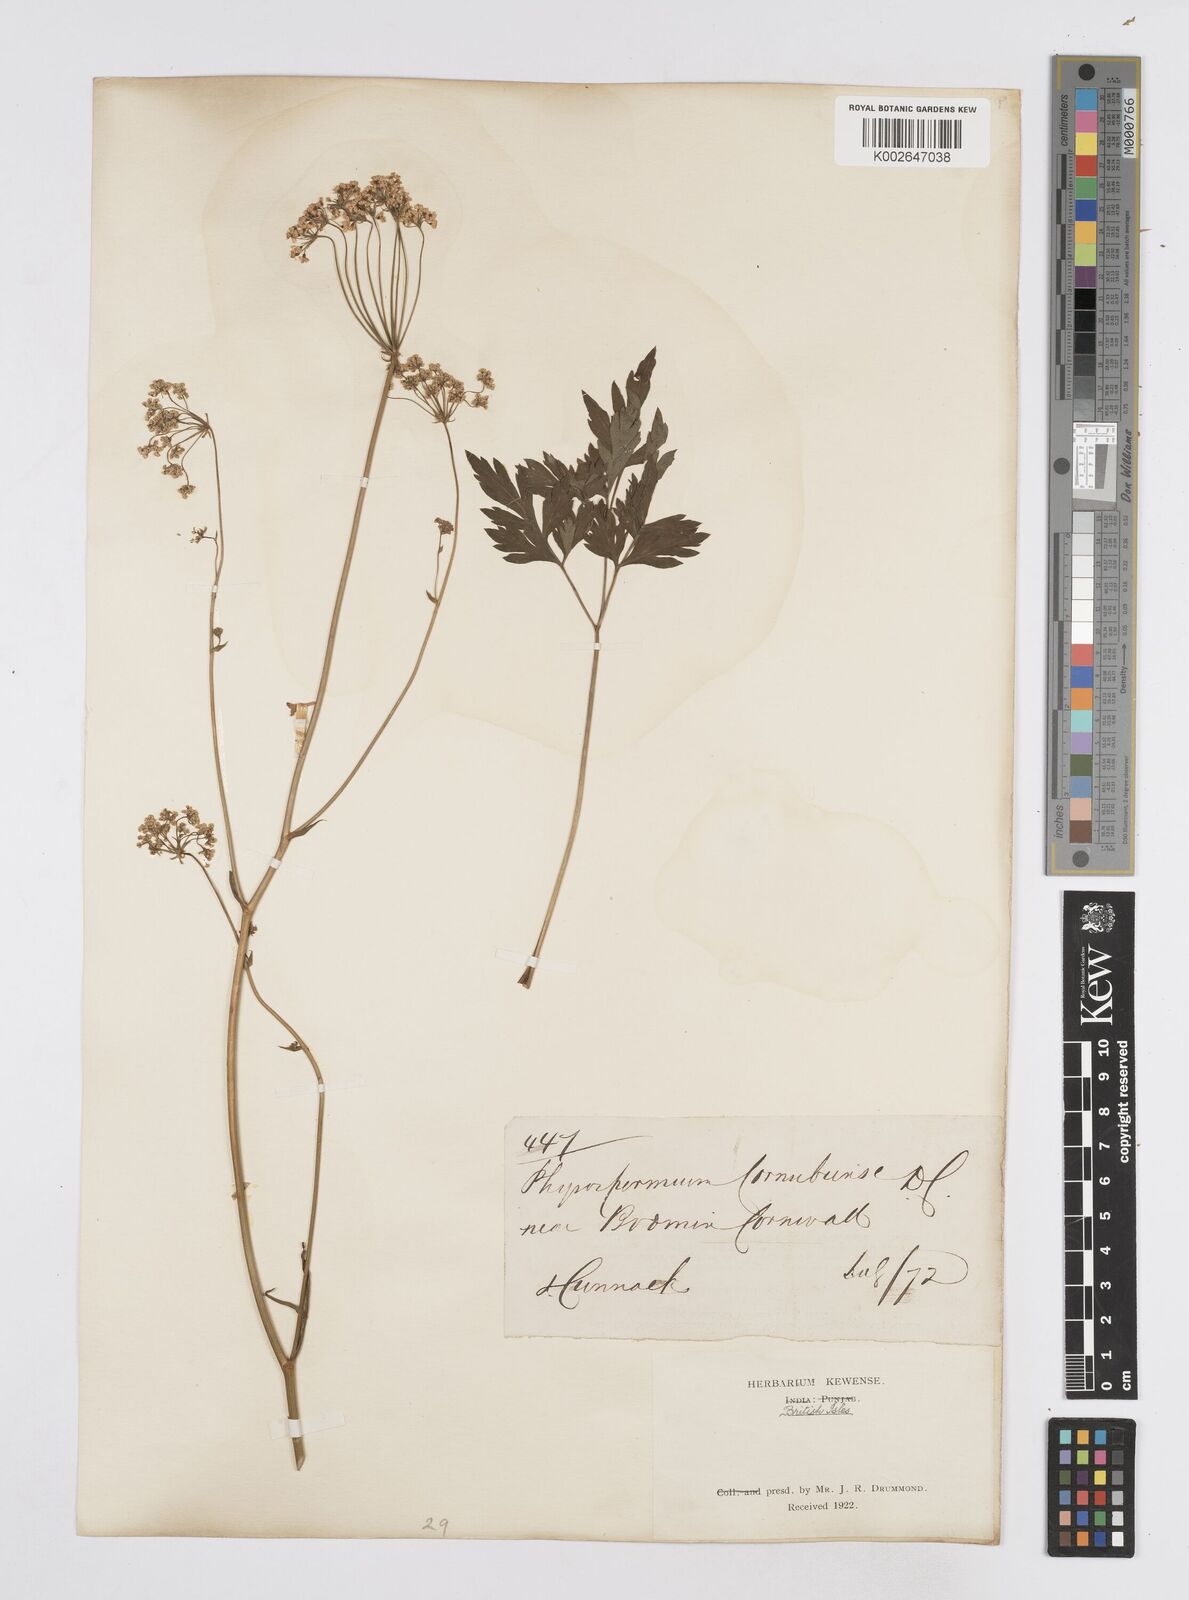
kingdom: Plantae
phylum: Tracheophyta
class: Magnoliopsida
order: Apiales
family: Apiaceae
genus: Physospermum
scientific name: Physospermum cornubiense
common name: Bladderseed
